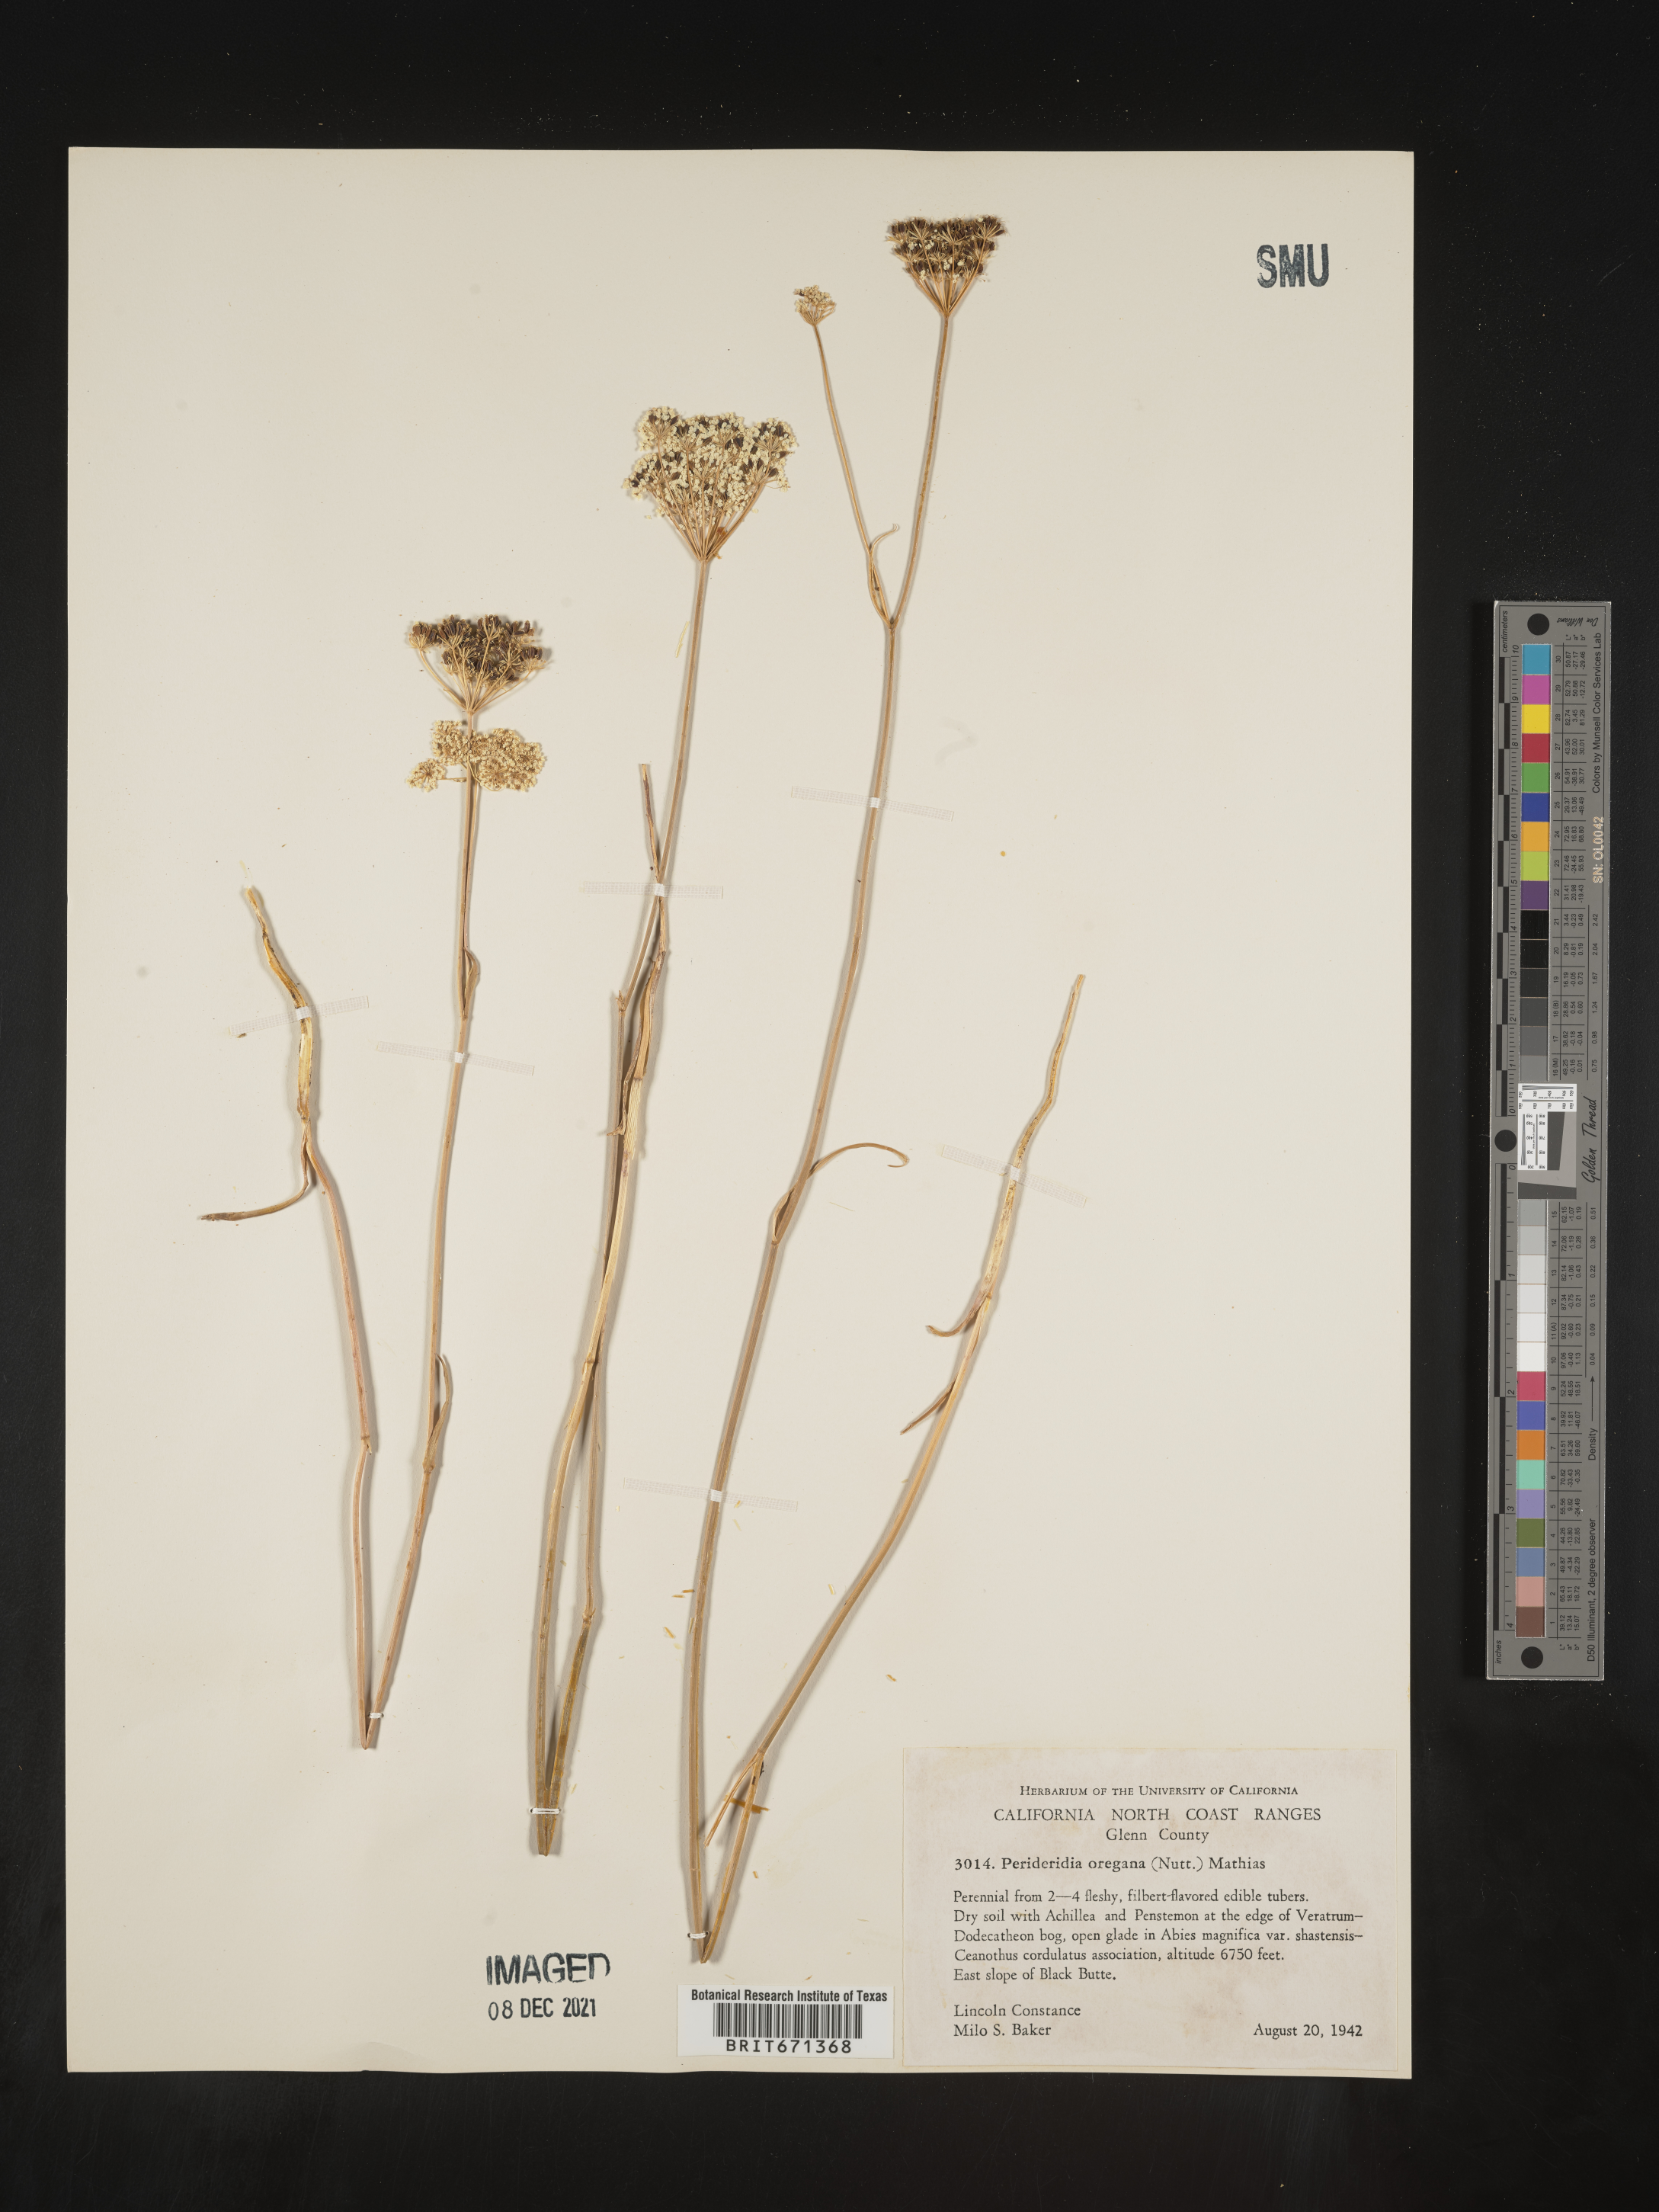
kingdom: Plantae
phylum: Tracheophyta
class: Magnoliopsida
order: Apiales
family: Apiaceae
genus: Perideridia
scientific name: Perideridia
